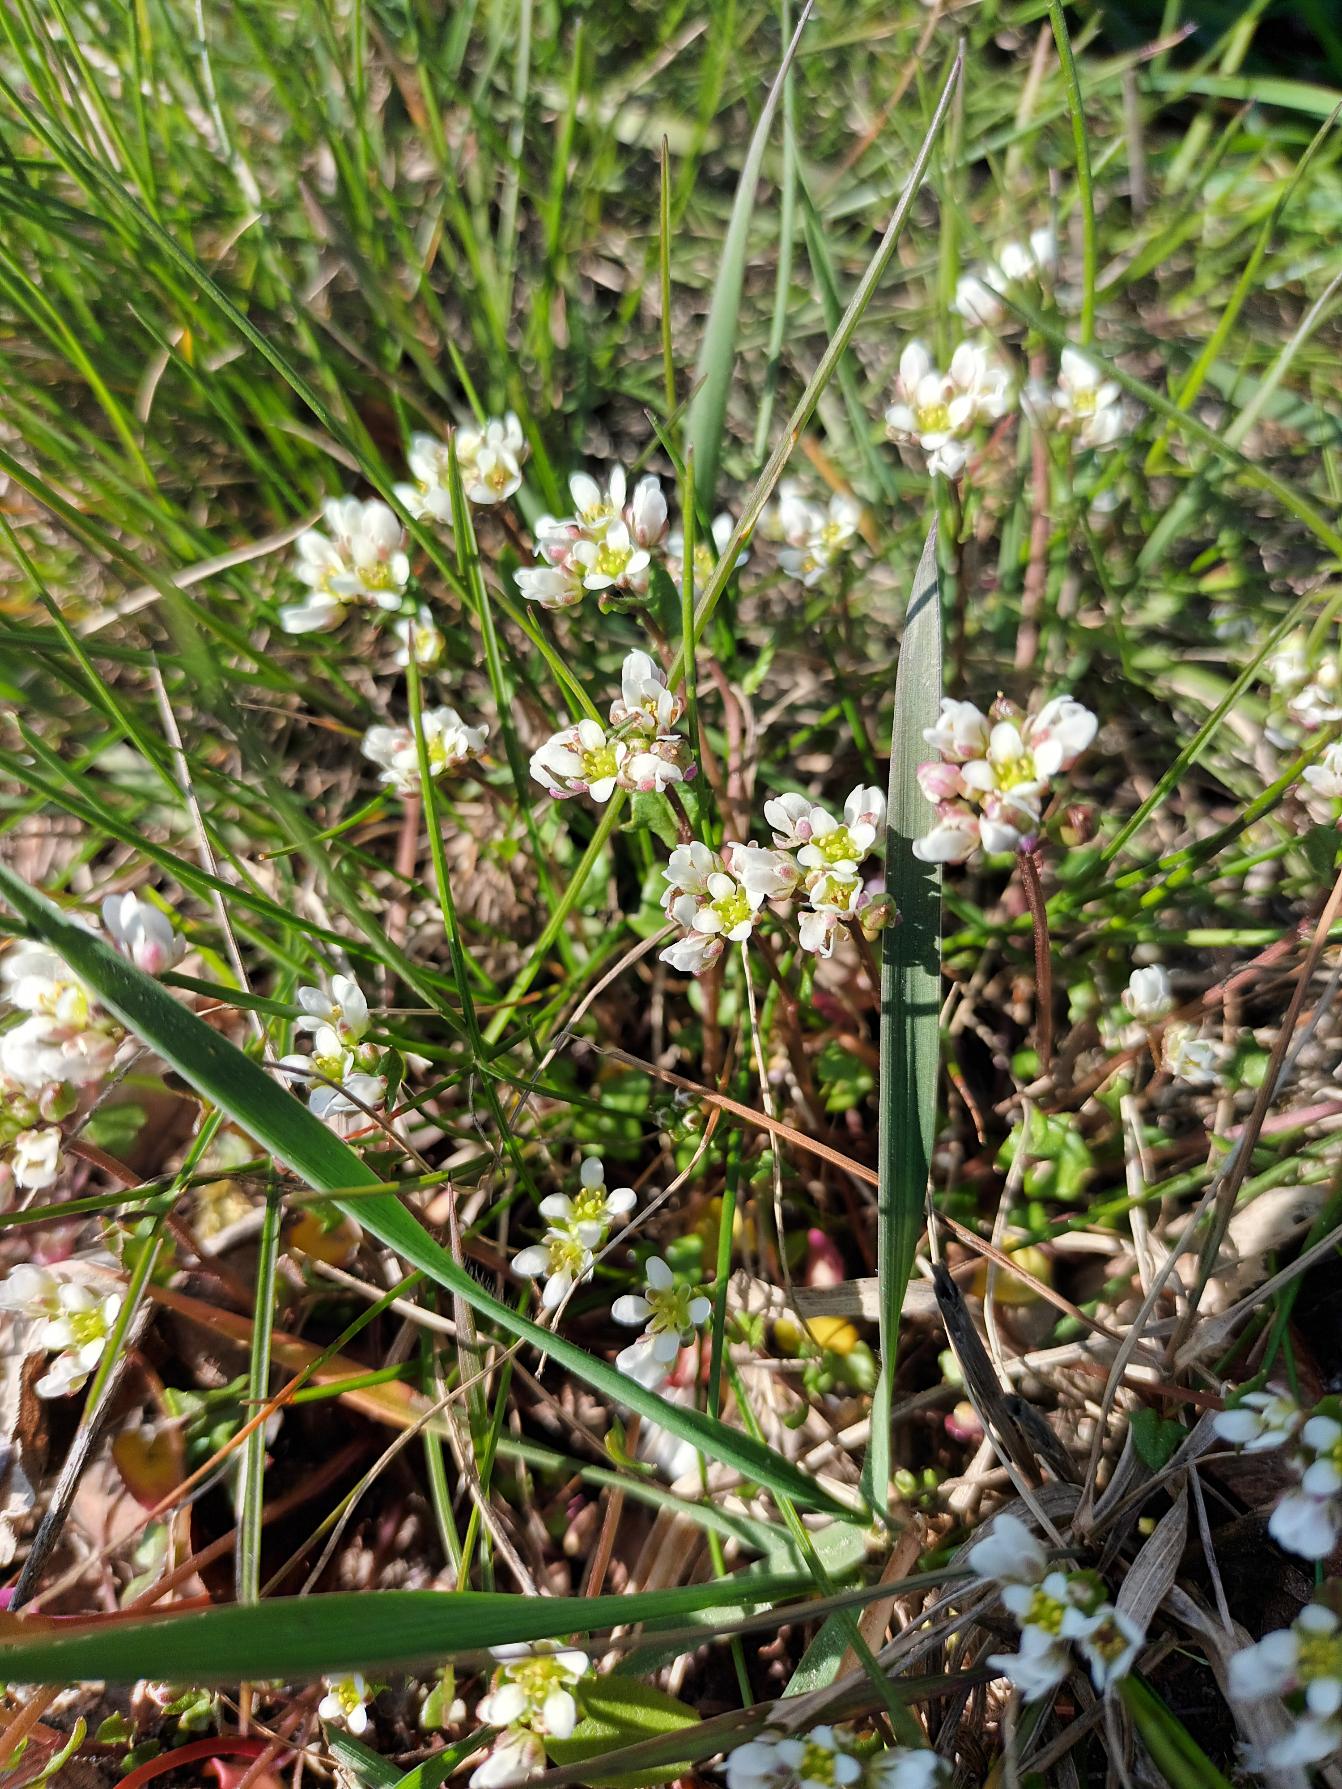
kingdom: Plantae
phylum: Tracheophyta
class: Magnoliopsida
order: Brassicales
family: Brassicaceae
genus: Cochlearia
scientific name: Cochlearia danica
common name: Dansk kokleare
